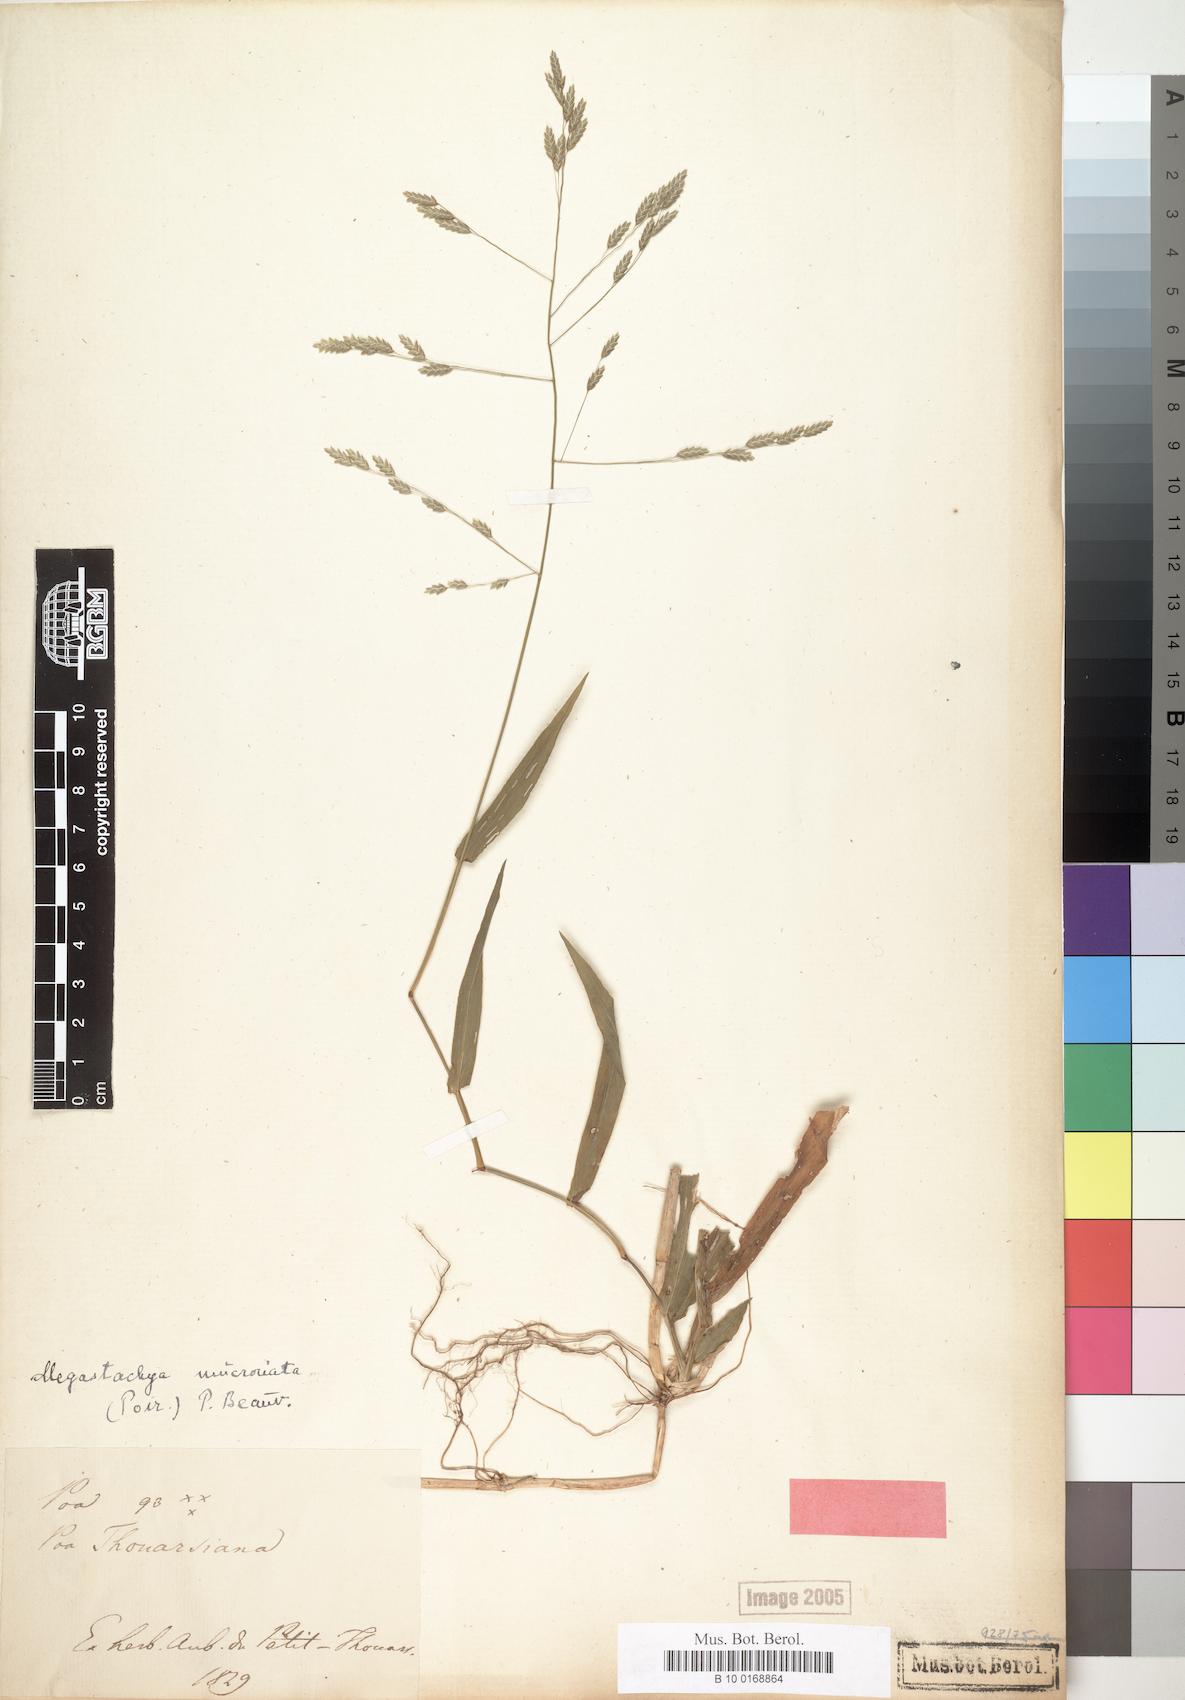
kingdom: Plantae
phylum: Tracheophyta
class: Liliopsida
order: Poales
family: Poaceae
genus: Poa
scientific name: Poa thouarsiana
